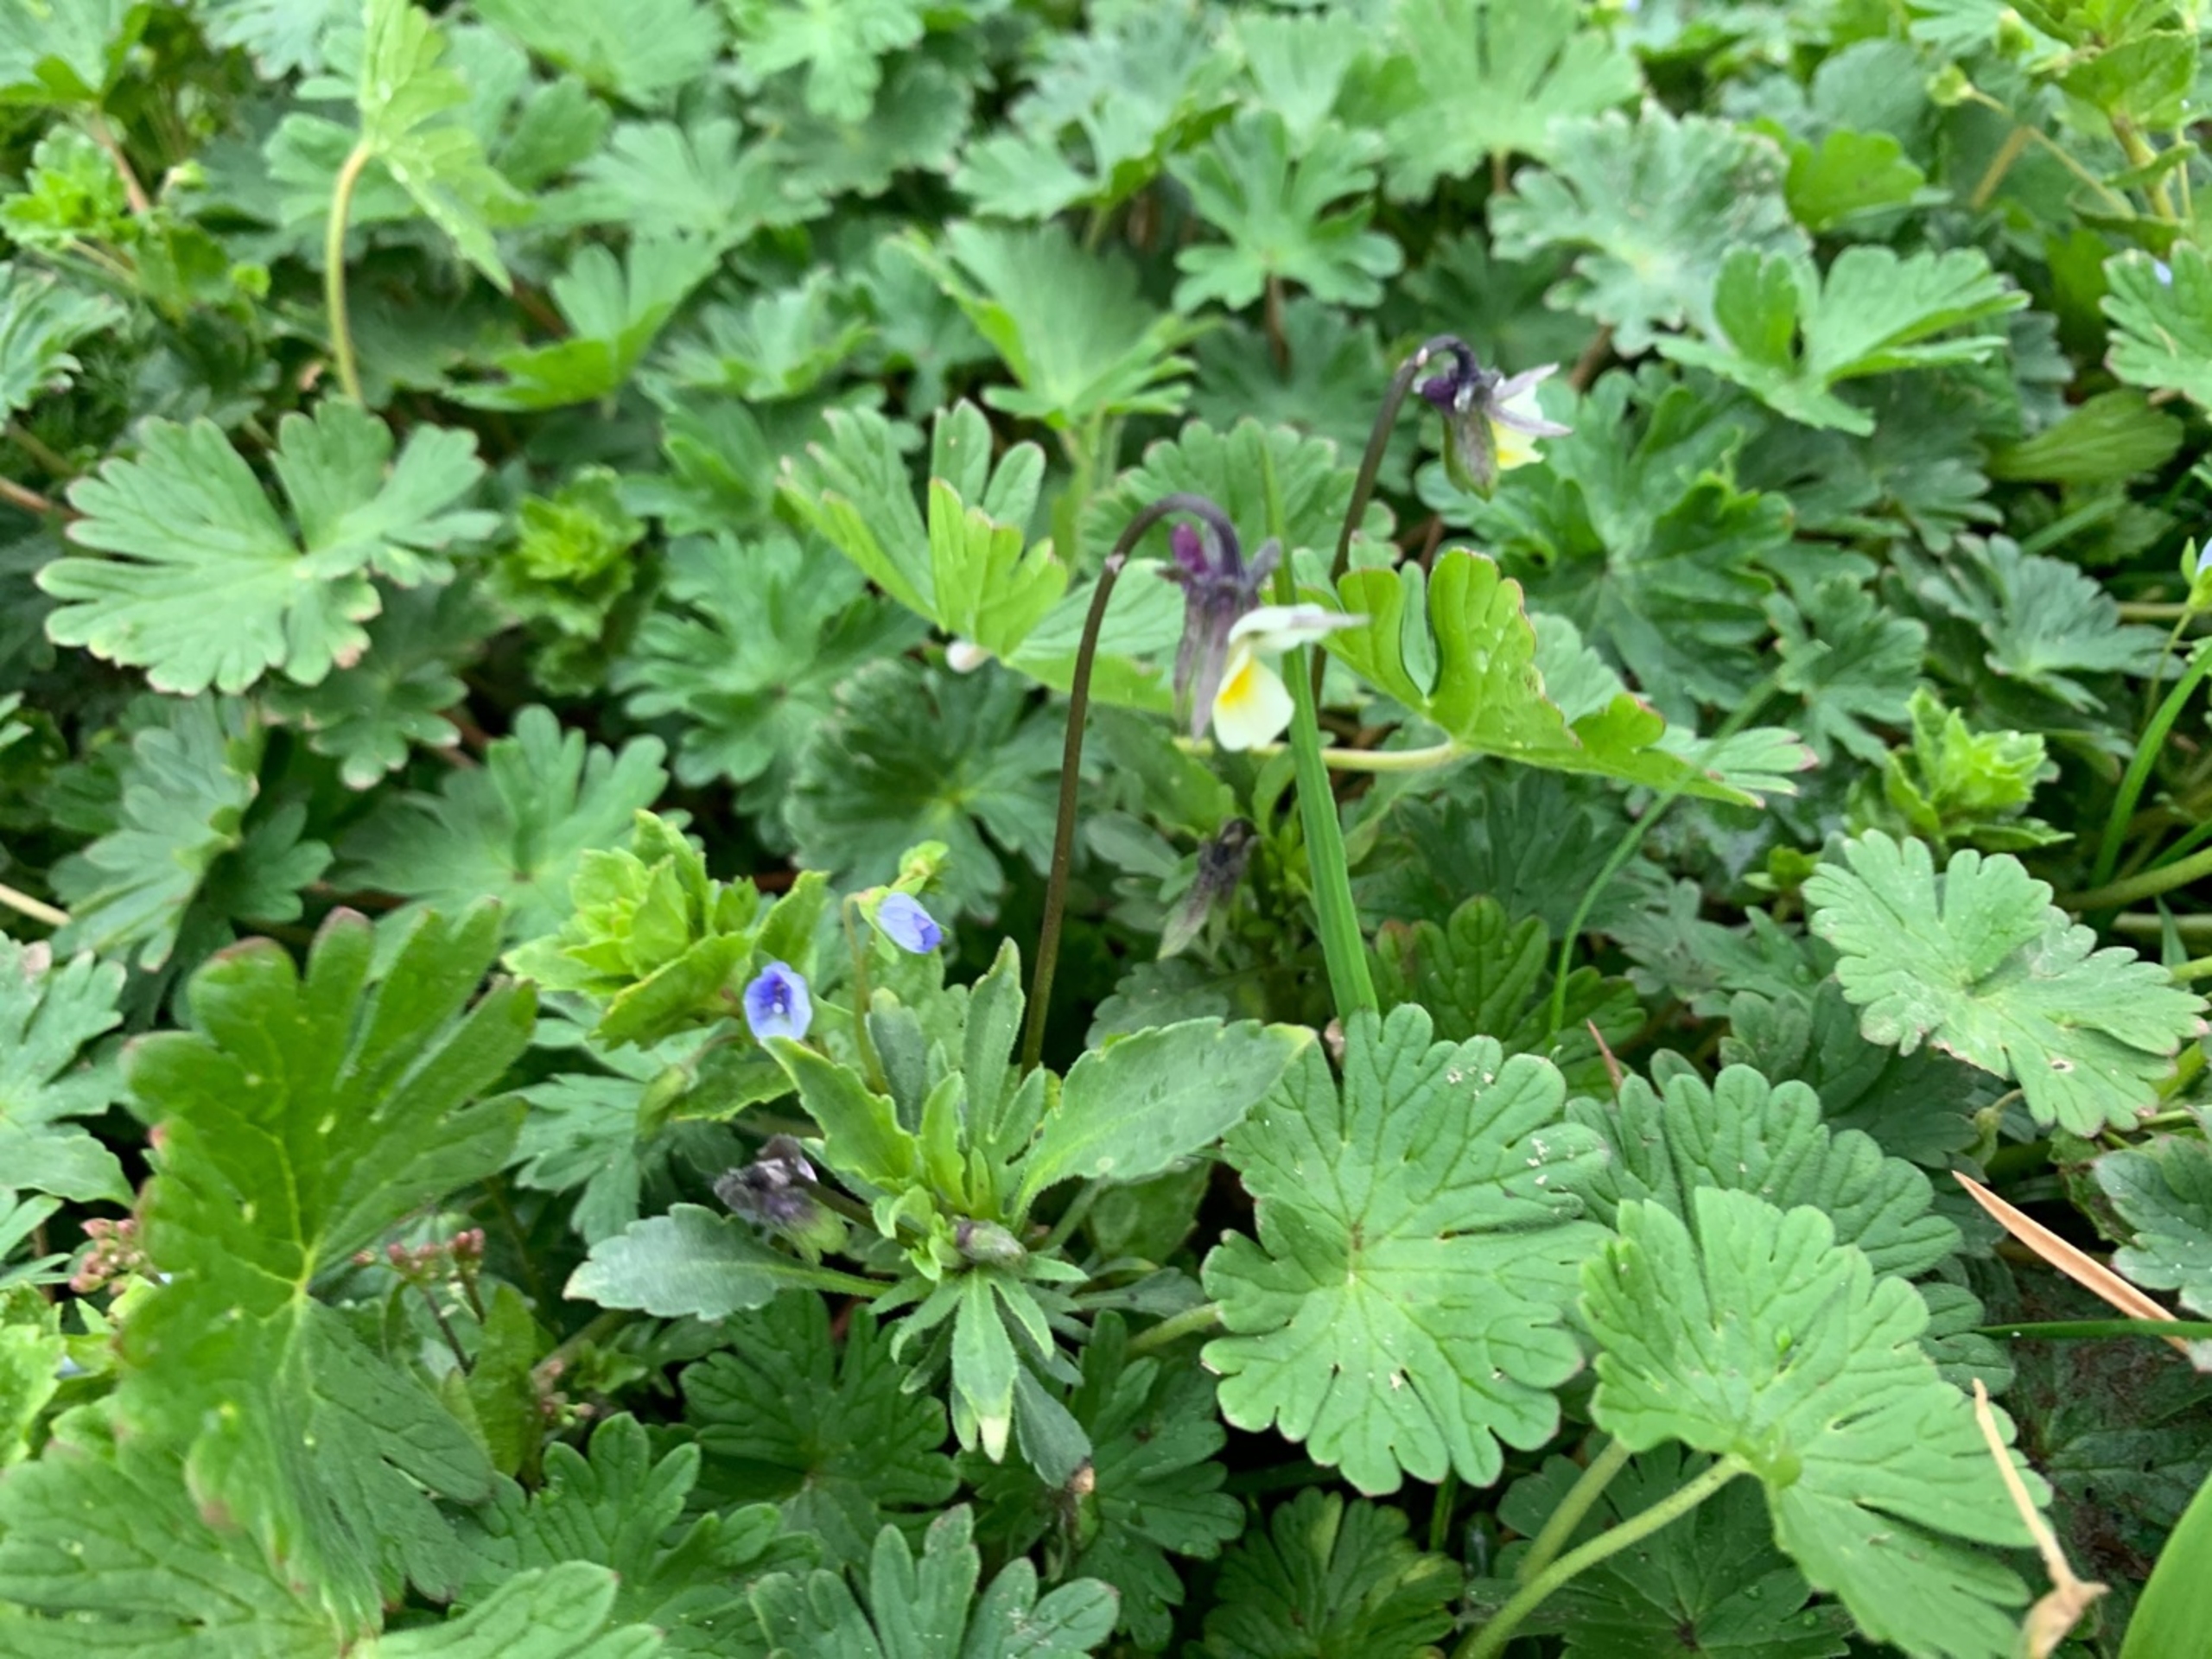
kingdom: Plantae
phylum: Tracheophyta
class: Magnoliopsida
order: Malpighiales
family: Violaceae
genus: Viola
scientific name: Viola arvensis
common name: Ager-stedmoderblomst
